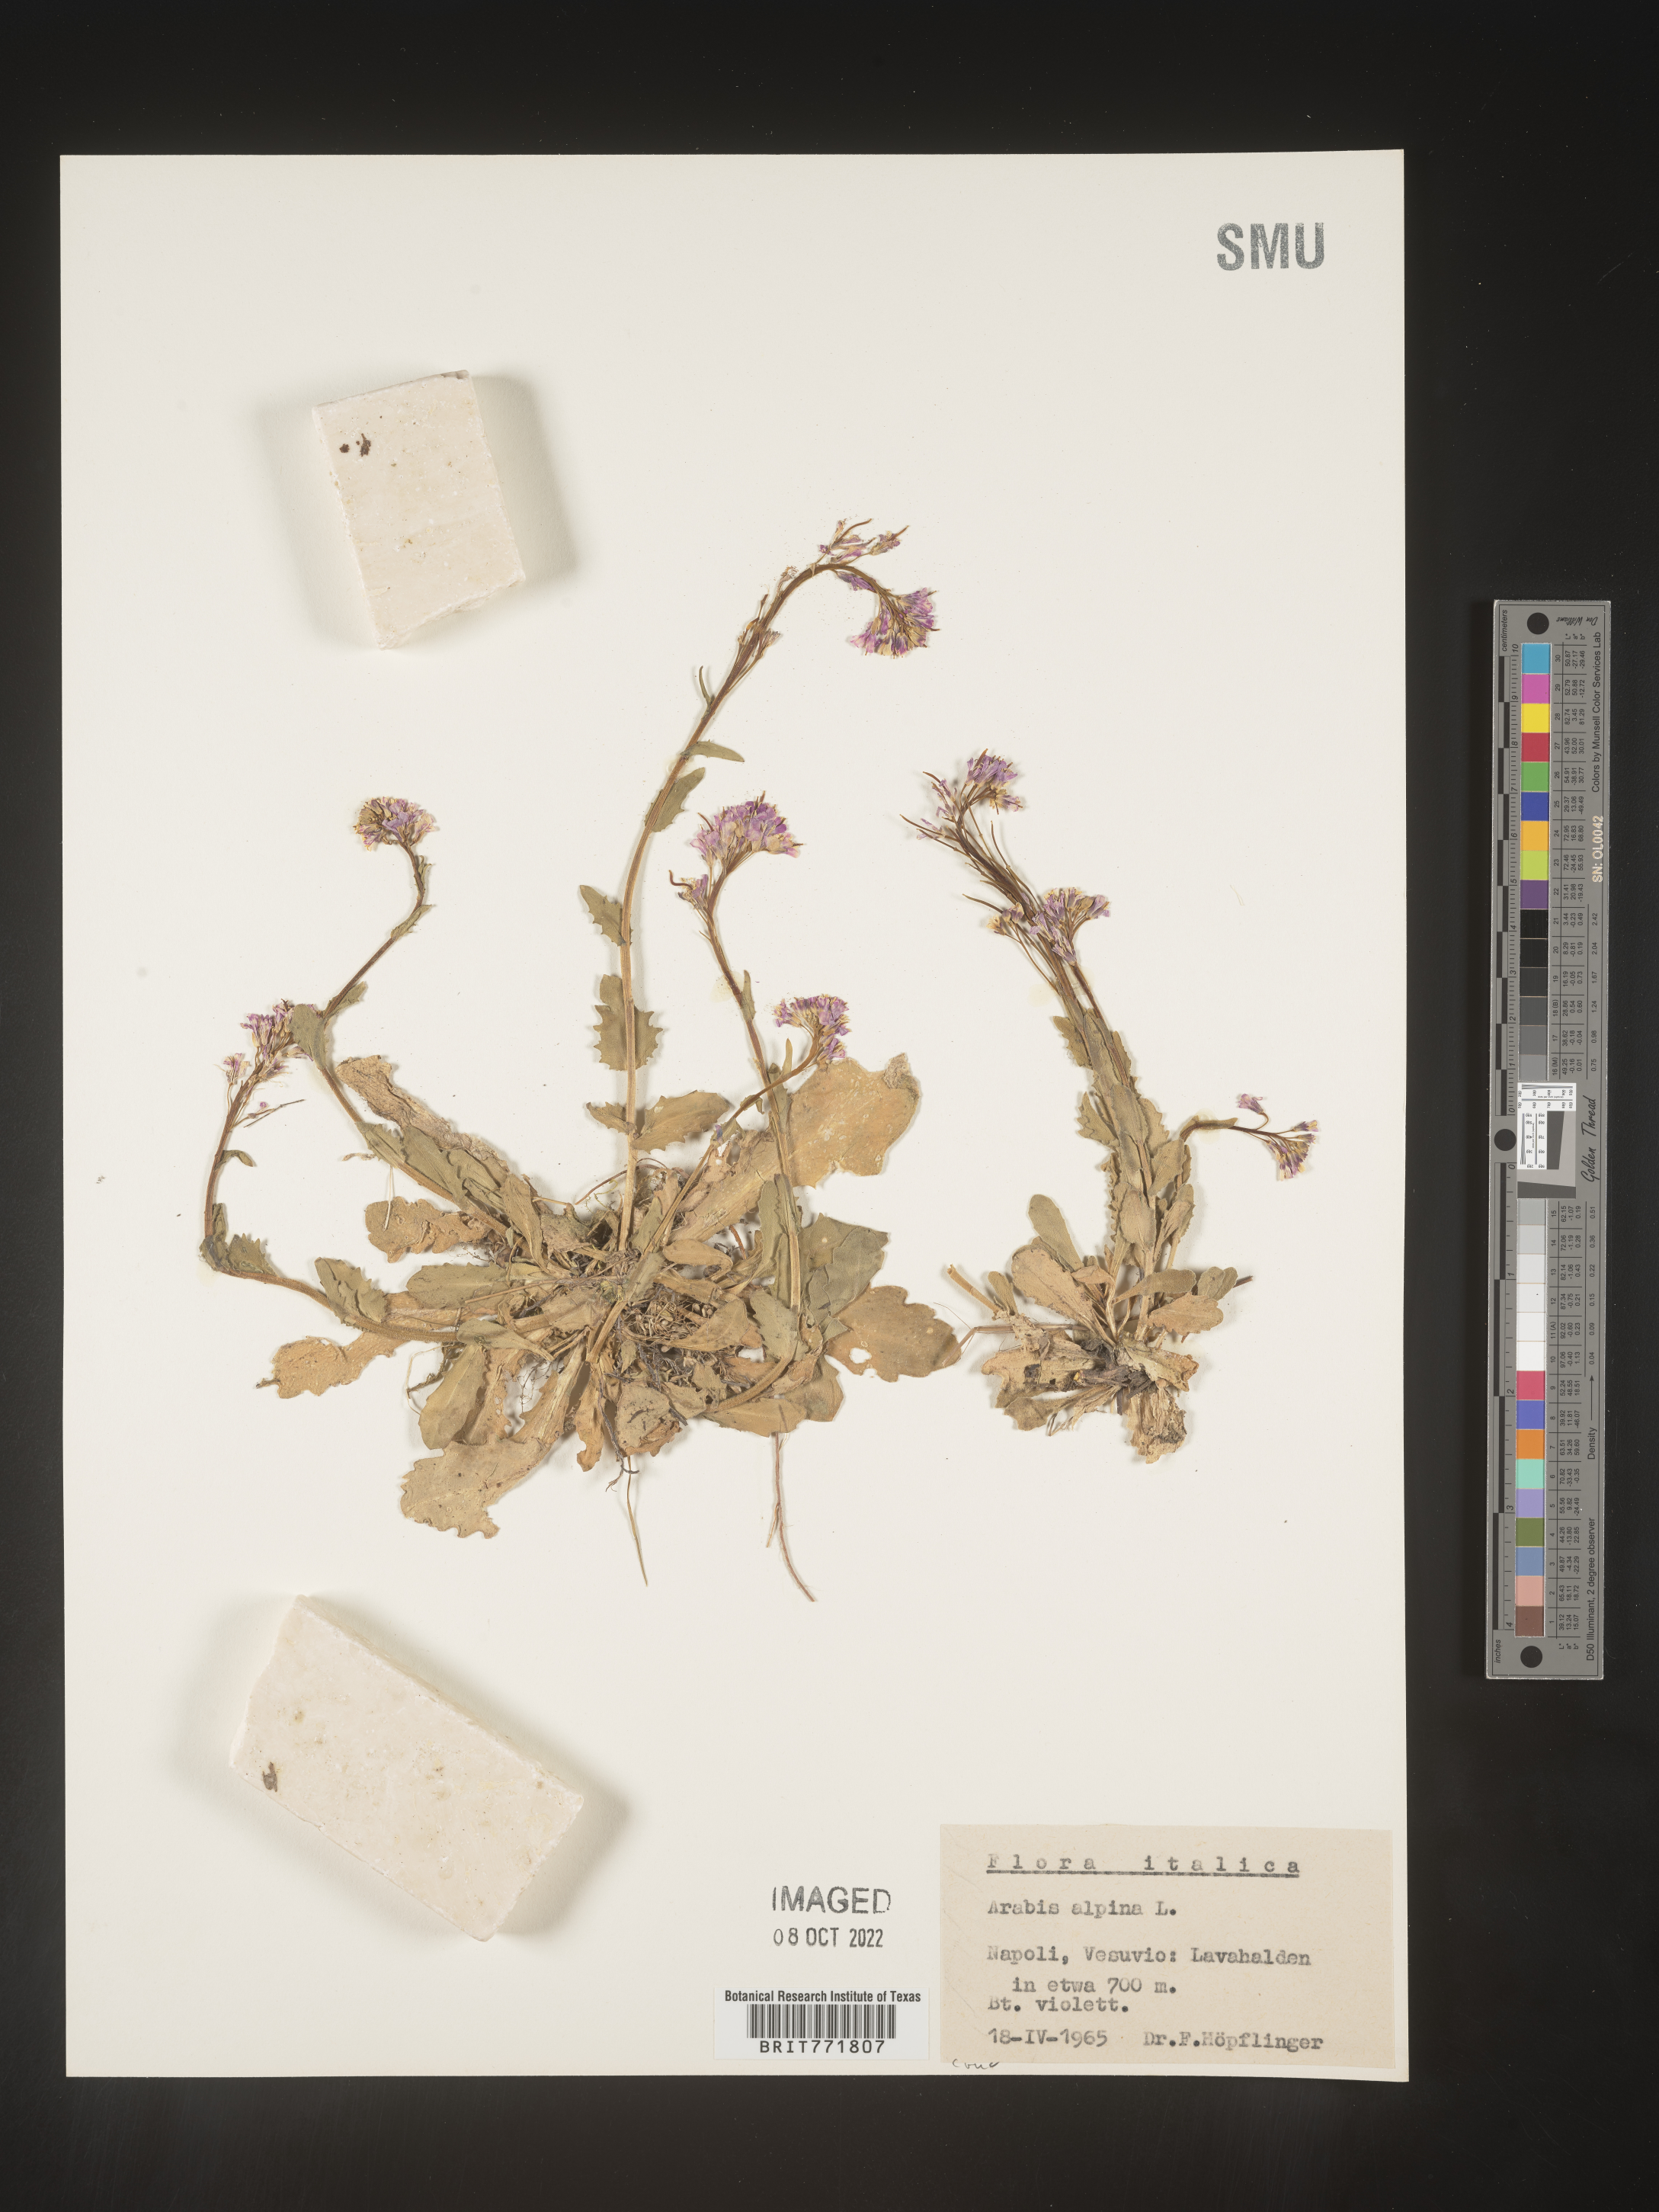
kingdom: Plantae
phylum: Tracheophyta
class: Magnoliopsida
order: Brassicales
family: Brassicaceae
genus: Arabis
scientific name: Arabis
